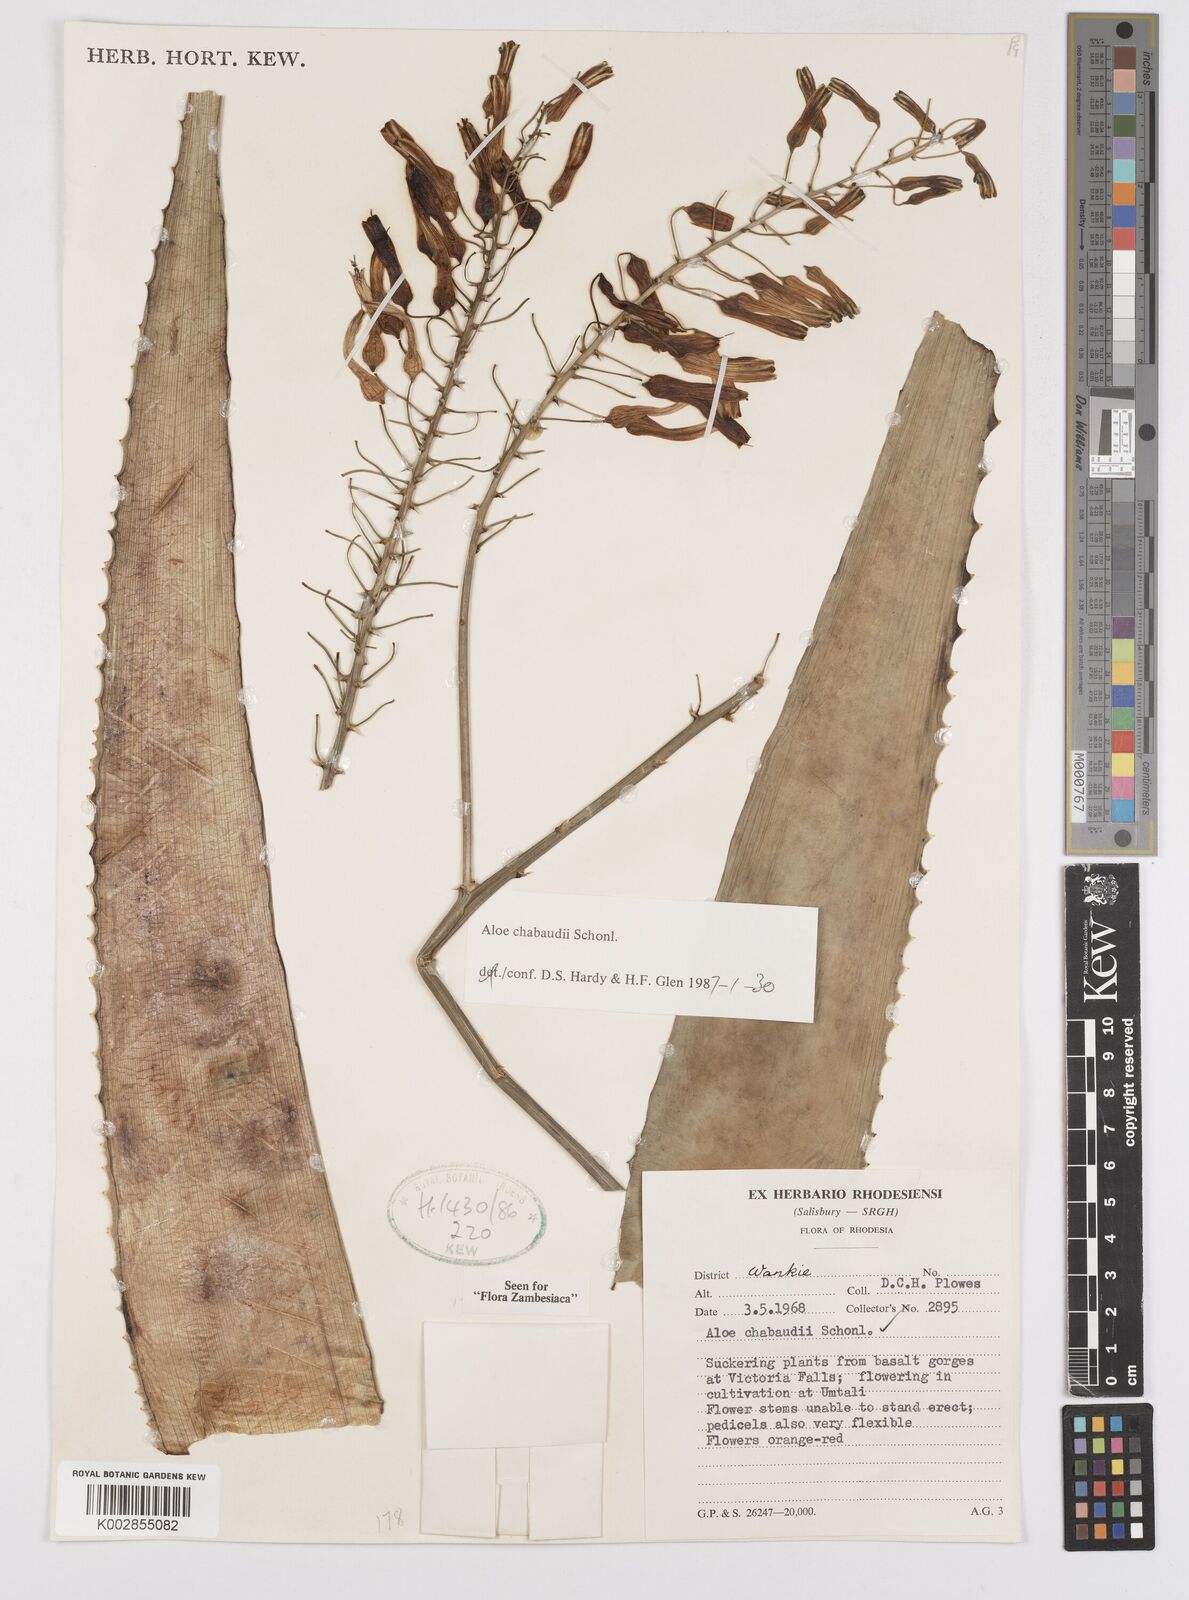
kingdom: Plantae
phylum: Tracheophyta
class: Liliopsida
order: Asparagales
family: Asphodelaceae
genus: Aloe
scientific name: Aloe chabaudii
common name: Chabaud's aloe
